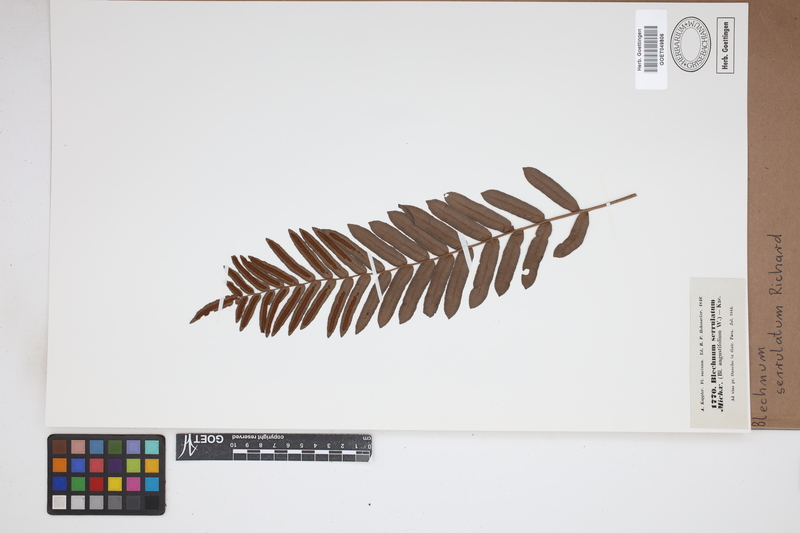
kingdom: Plantae
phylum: Tracheophyta
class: Polypodiopsida
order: Polypodiales
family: Blechnaceae
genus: Telmatoblechnum
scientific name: Telmatoblechnum serrulatum
